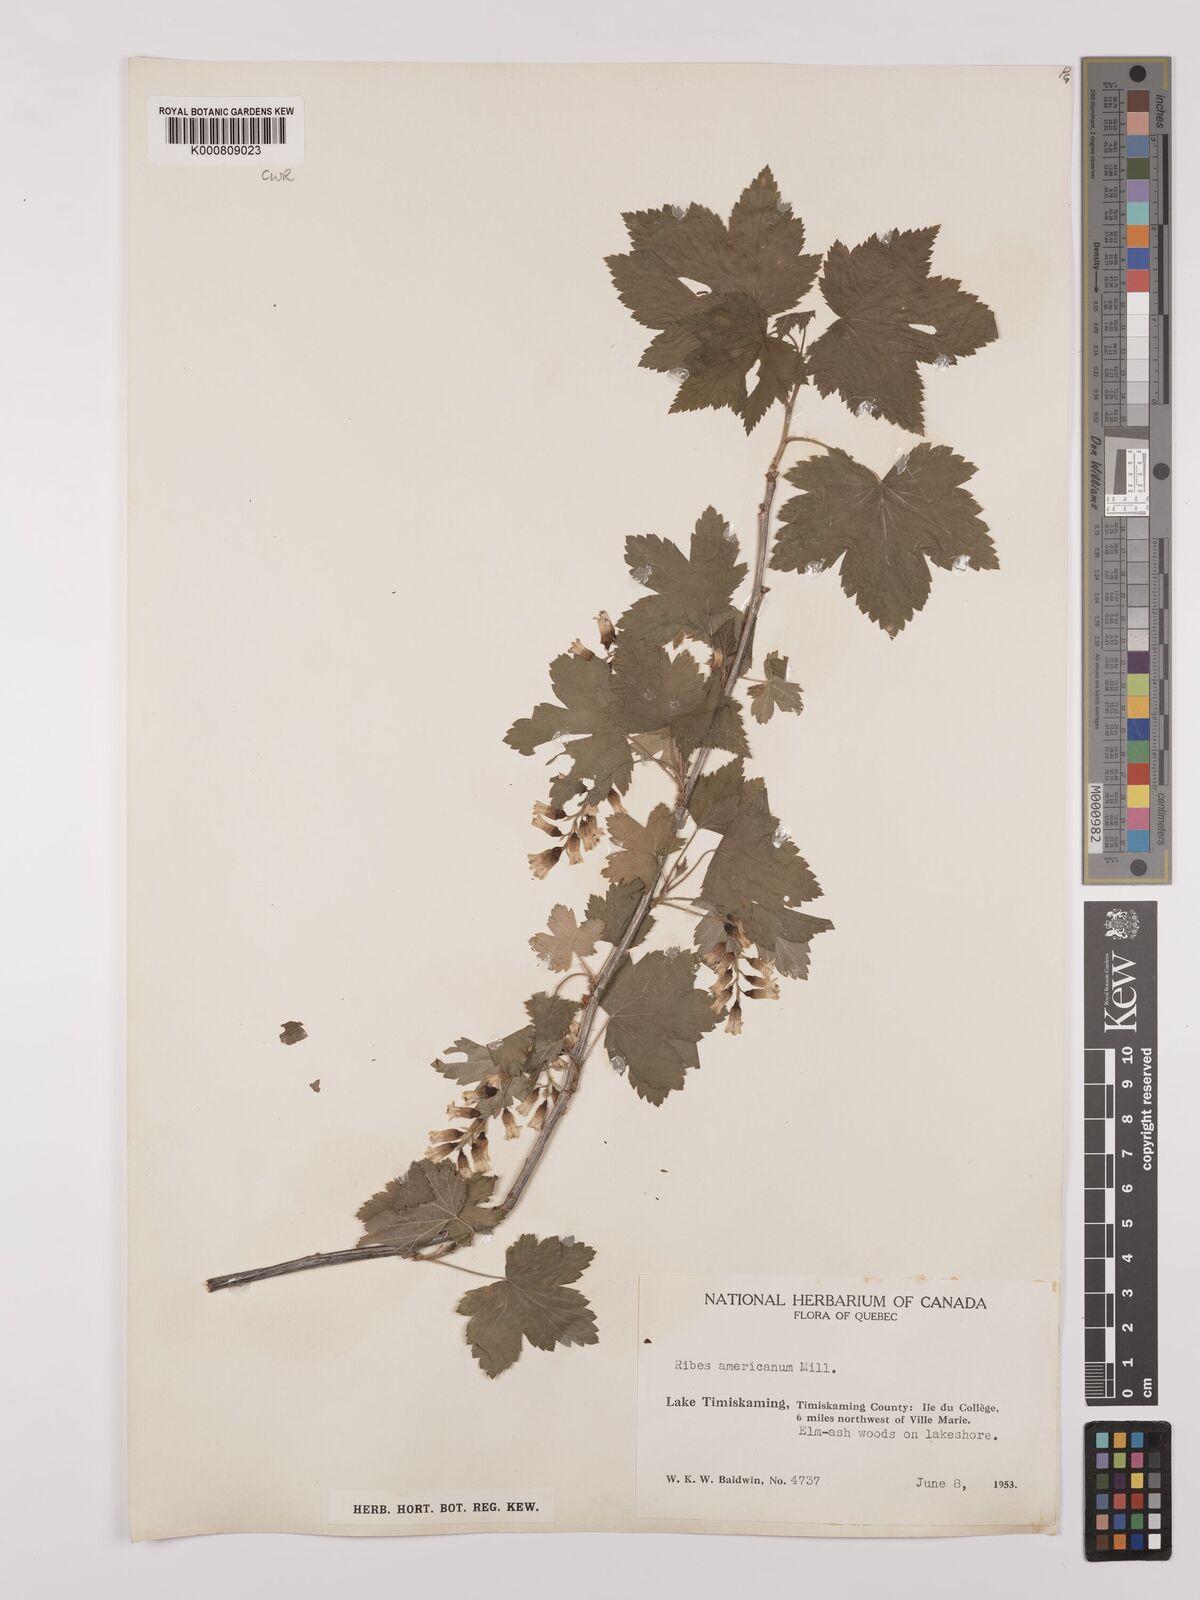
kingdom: Plantae
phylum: Tracheophyta
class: Magnoliopsida
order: Saxifragales
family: Grossulariaceae
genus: Ribes
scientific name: Ribes americanum
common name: American black currant
